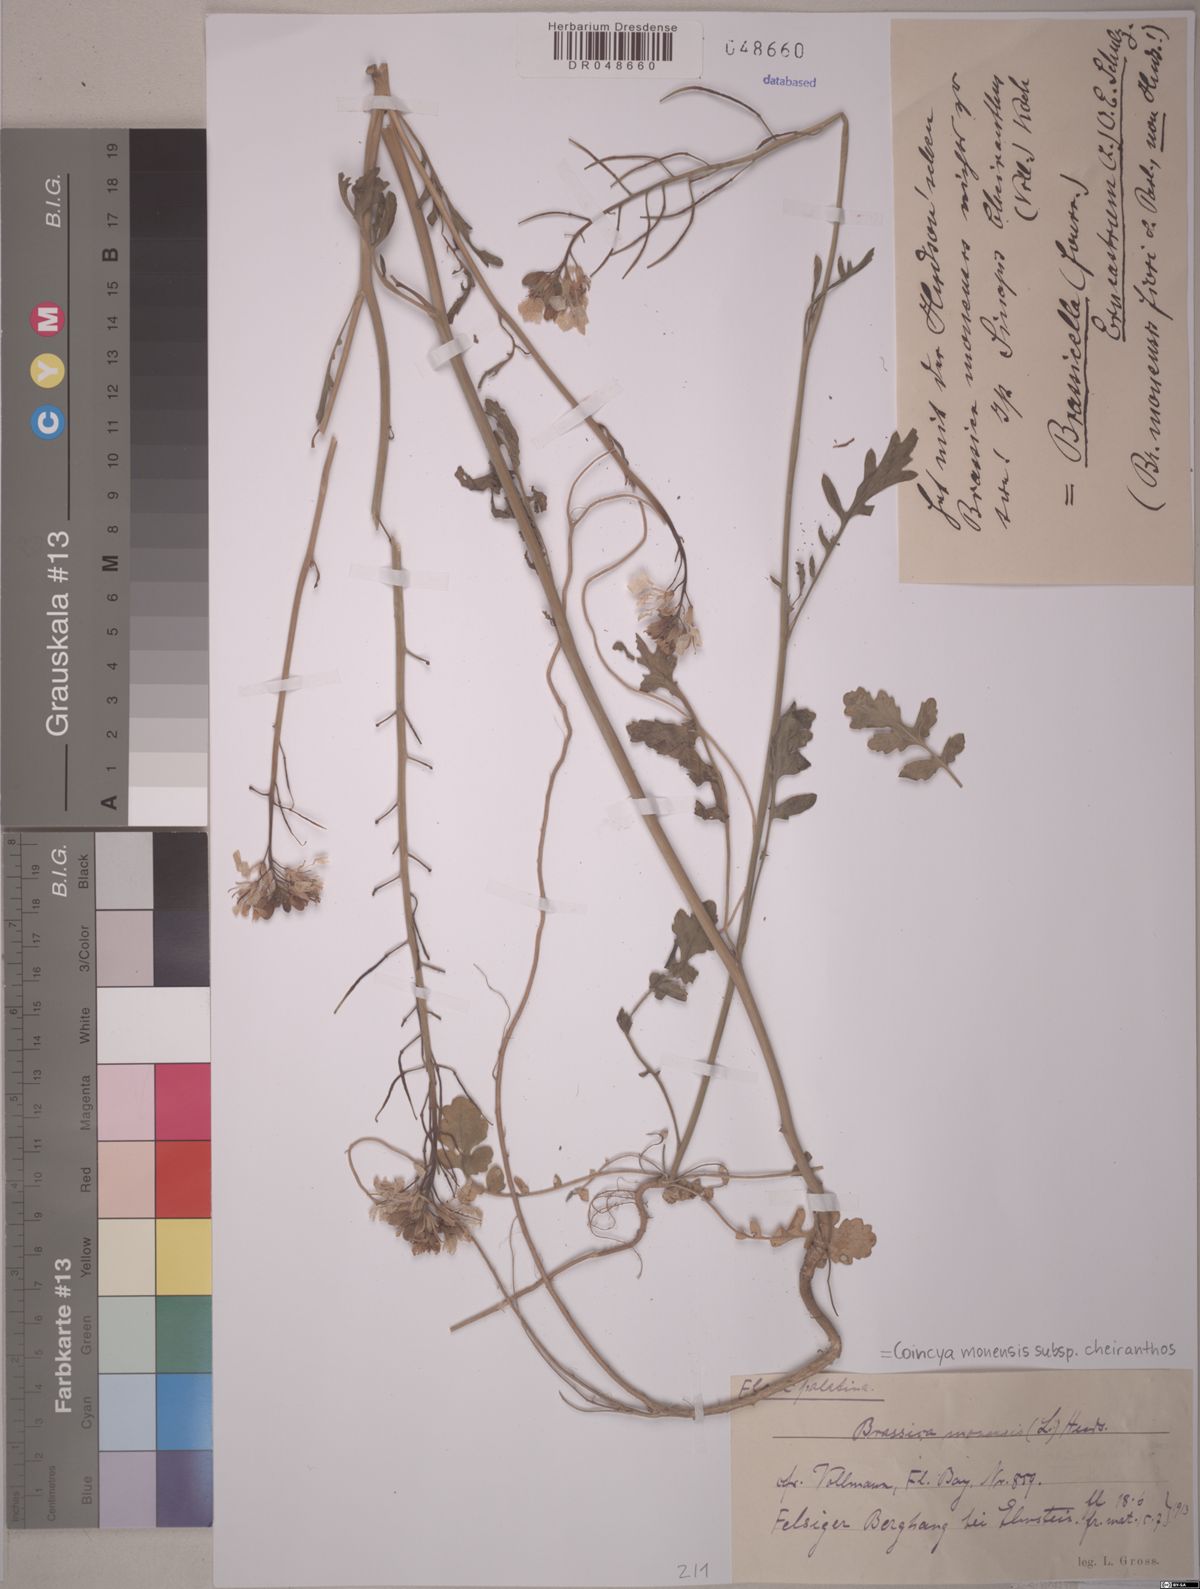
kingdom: Plantae
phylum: Tracheophyta
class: Magnoliopsida
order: Brassicales
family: Brassicaceae
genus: Coincya
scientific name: Coincya monensis
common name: Star-mustard
